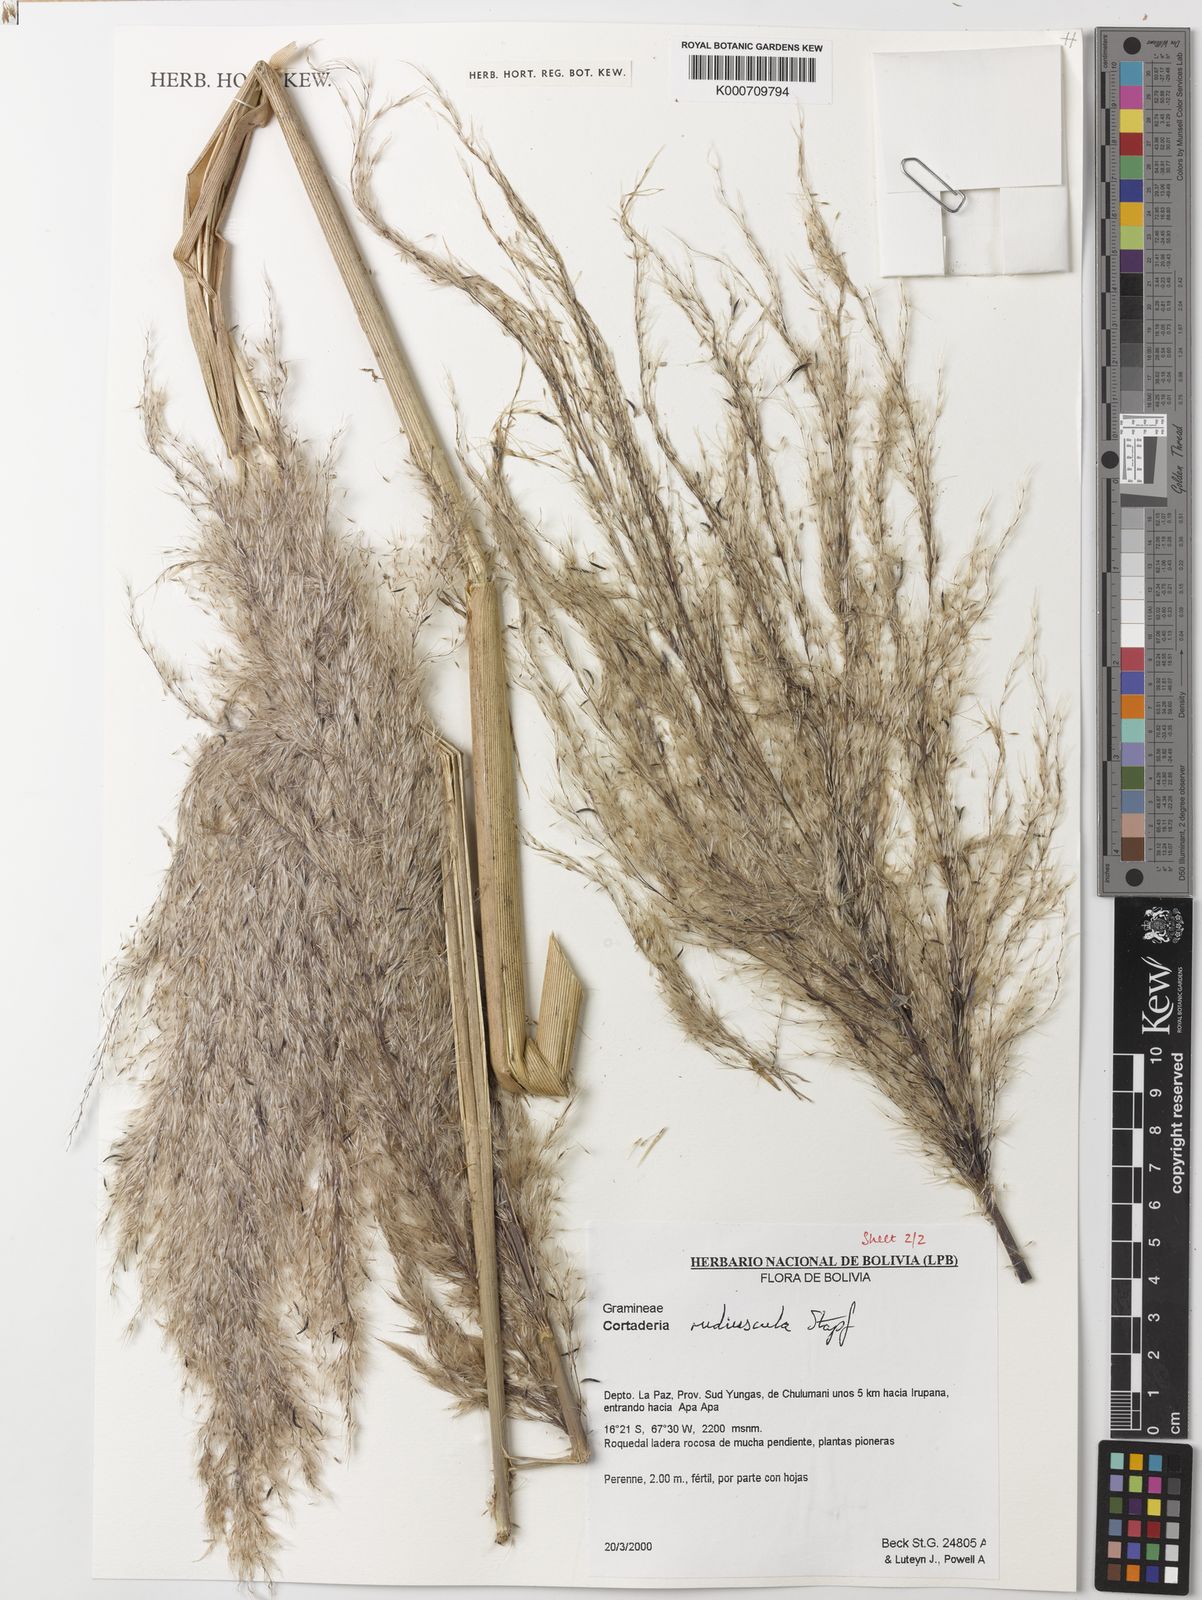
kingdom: Plantae
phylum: Tracheophyta
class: Liliopsida
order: Poales
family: Poaceae
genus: Cortaderia
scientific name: Cortaderia rudiuscula
